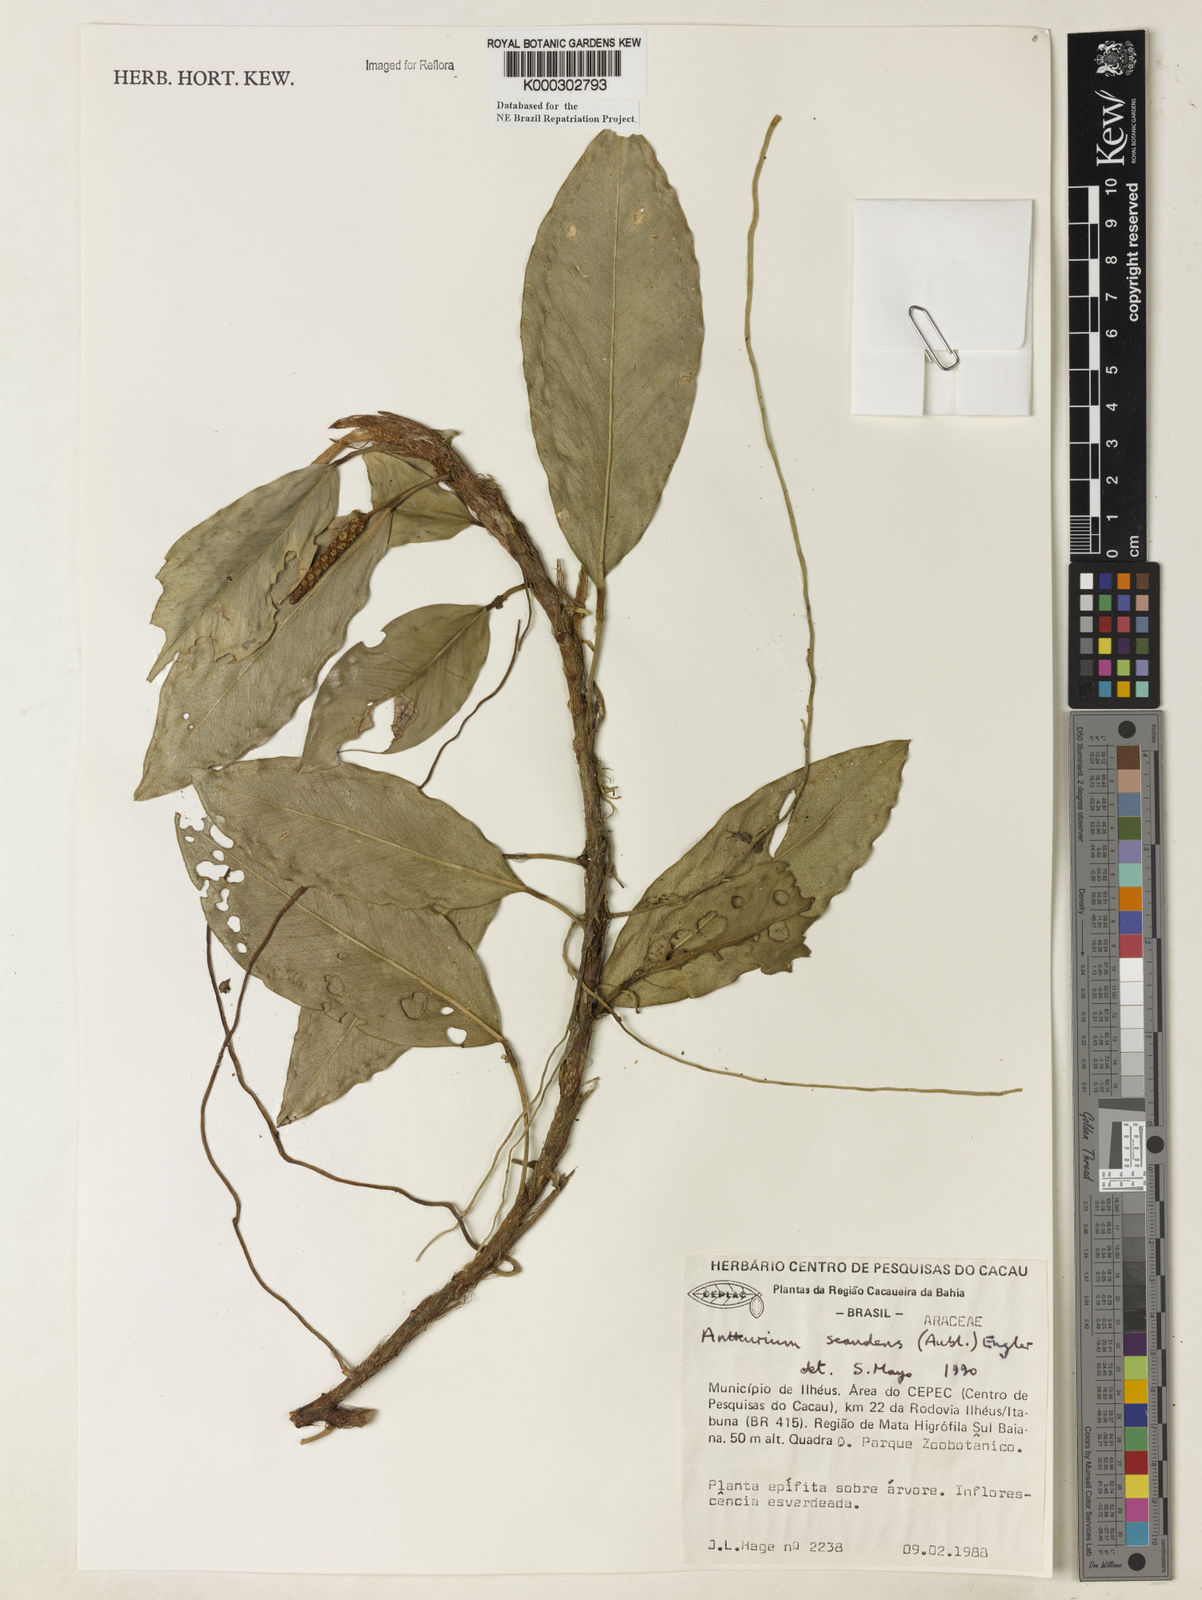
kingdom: Plantae
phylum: Tracheophyta
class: Liliopsida
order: Alismatales
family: Araceae
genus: Anthurium
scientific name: Anthurium scandens
